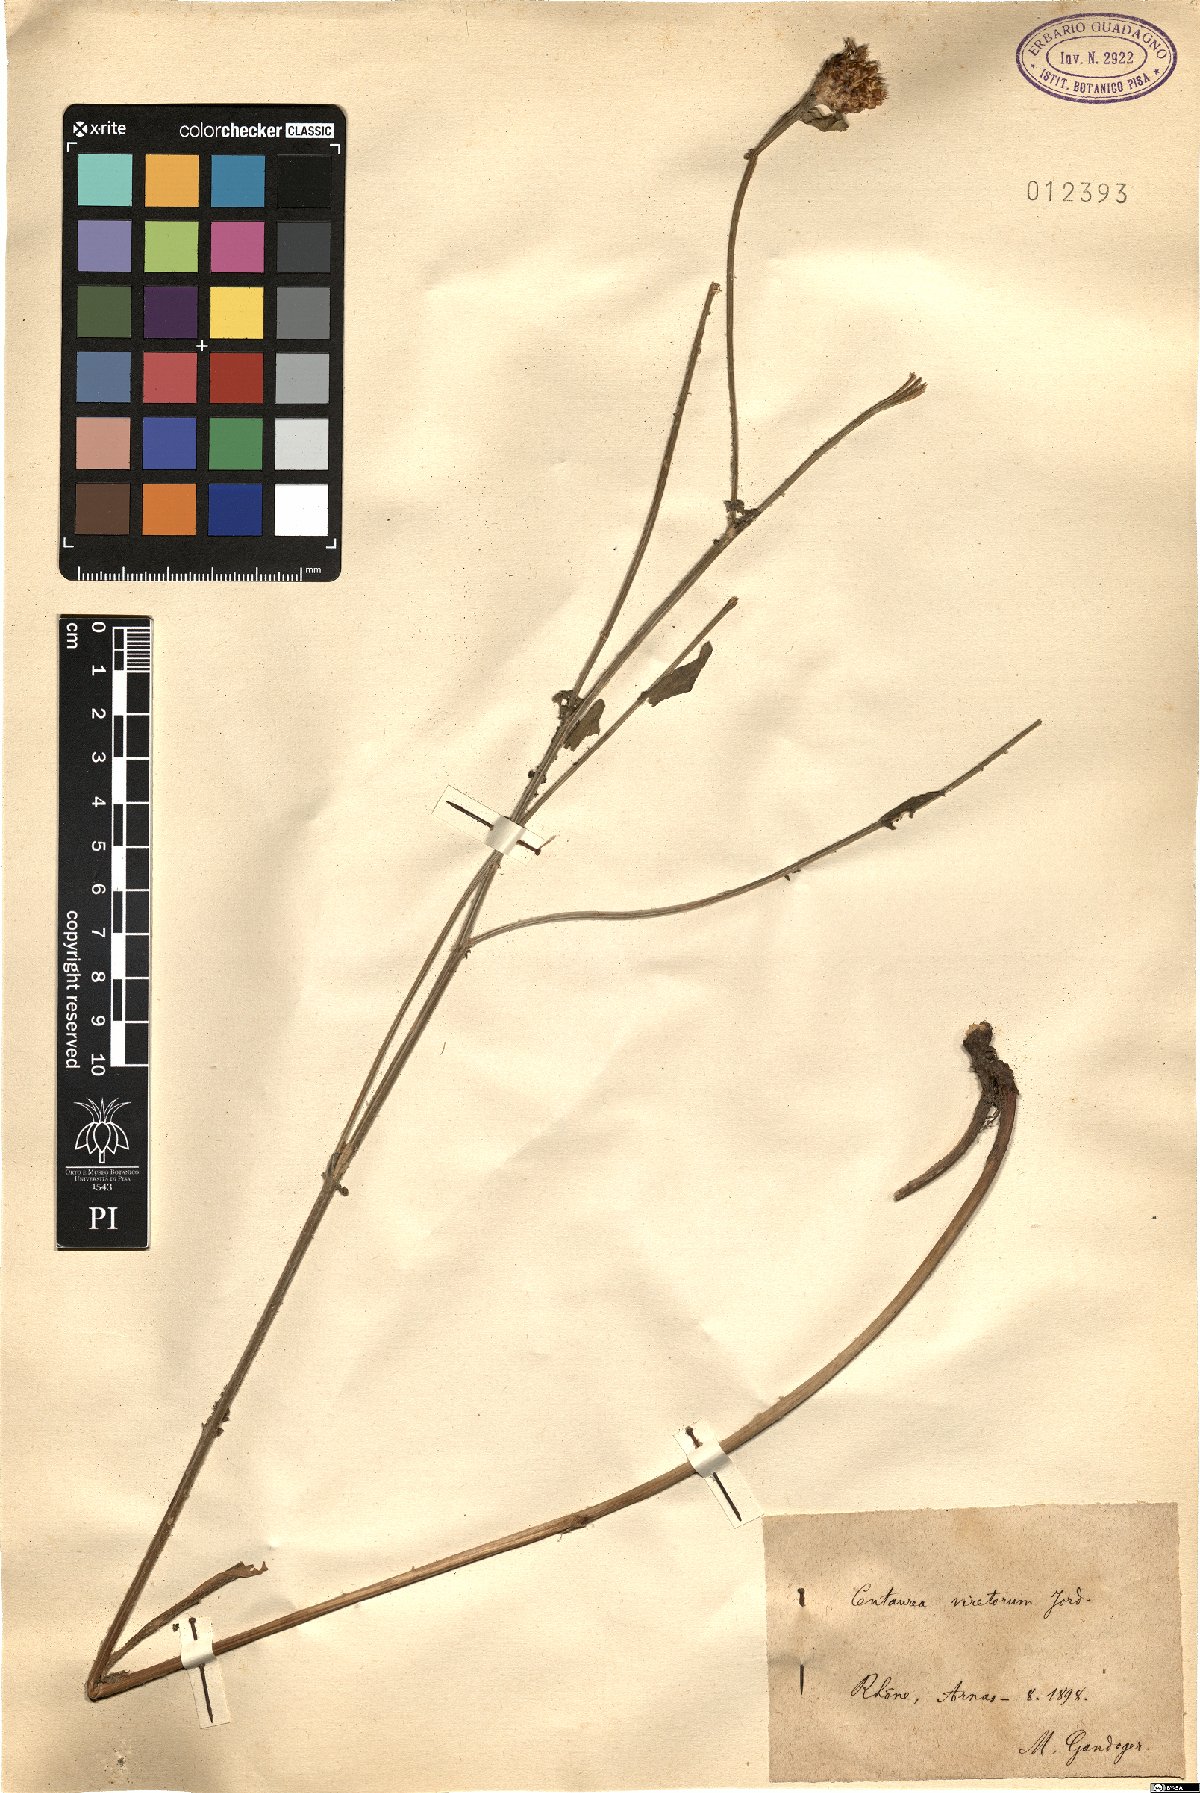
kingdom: Plantae
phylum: Tracheophyta
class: Magnoliopsida
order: Asterales
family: Asteraceae
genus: Centaurea
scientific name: Centaurea jacea
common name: Brown knapweed
